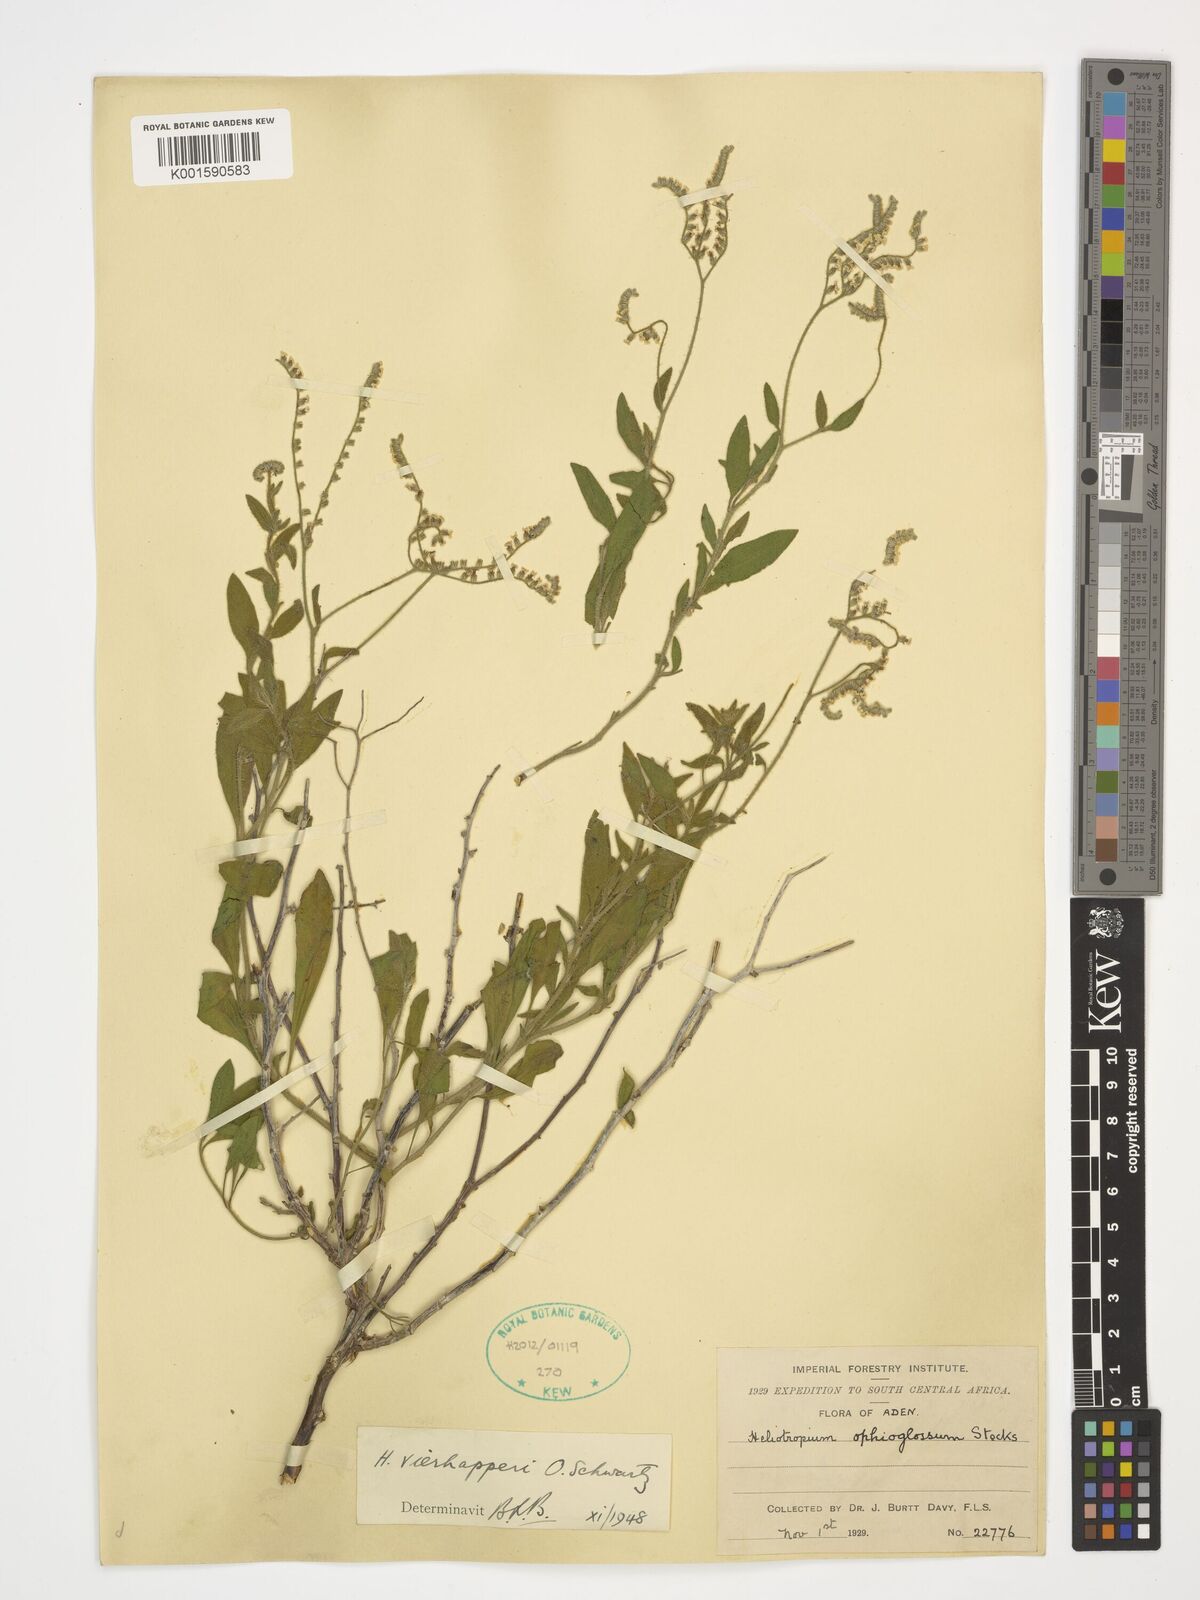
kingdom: Plantae
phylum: Tracheophyta
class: Magnoliopsida
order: Boraginales
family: Heliotropiaceae
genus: Heliotropium
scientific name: Heliotropium ophioglossum
